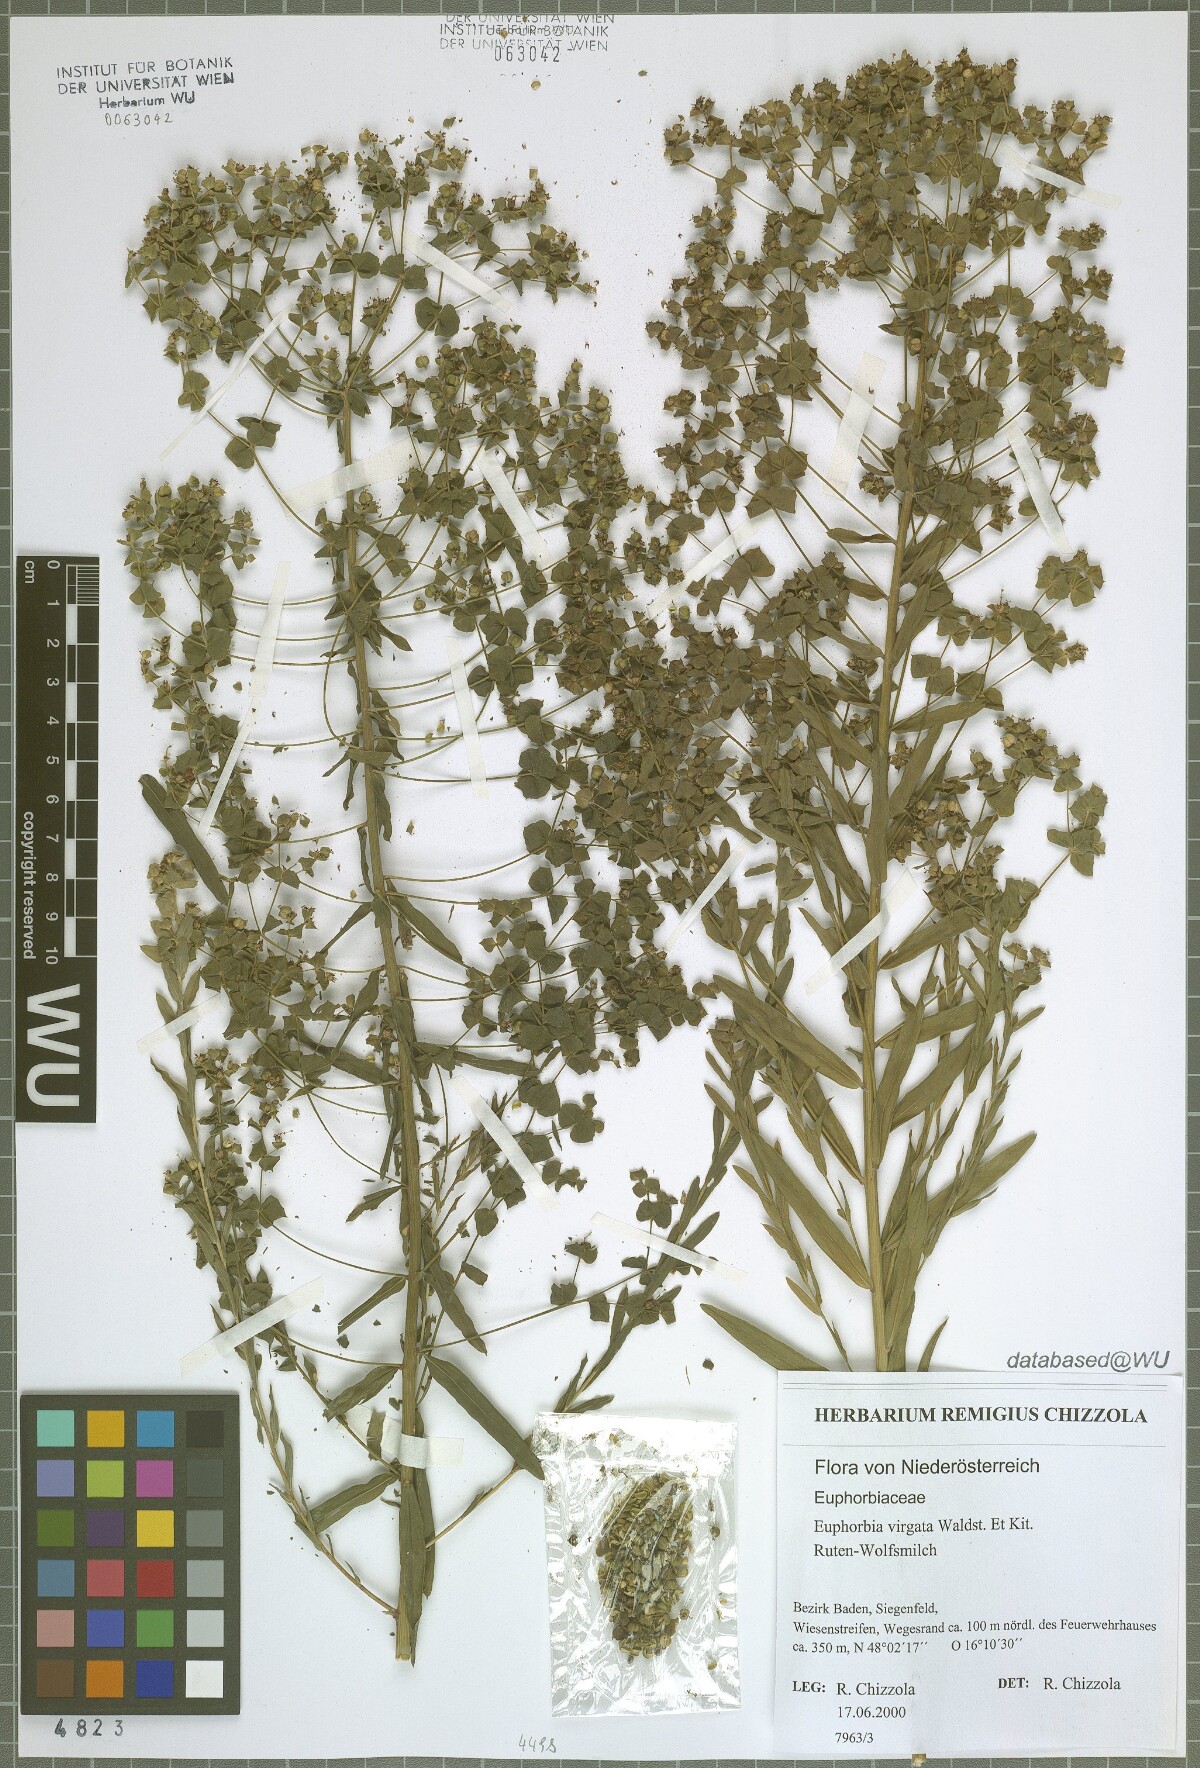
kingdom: Plantae
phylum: Tracheophyta
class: Magnoliopsida
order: Malpighiales
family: Euphorbiaceae
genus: Euphorbia
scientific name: Euphorbia virgata
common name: Leafy spurge
